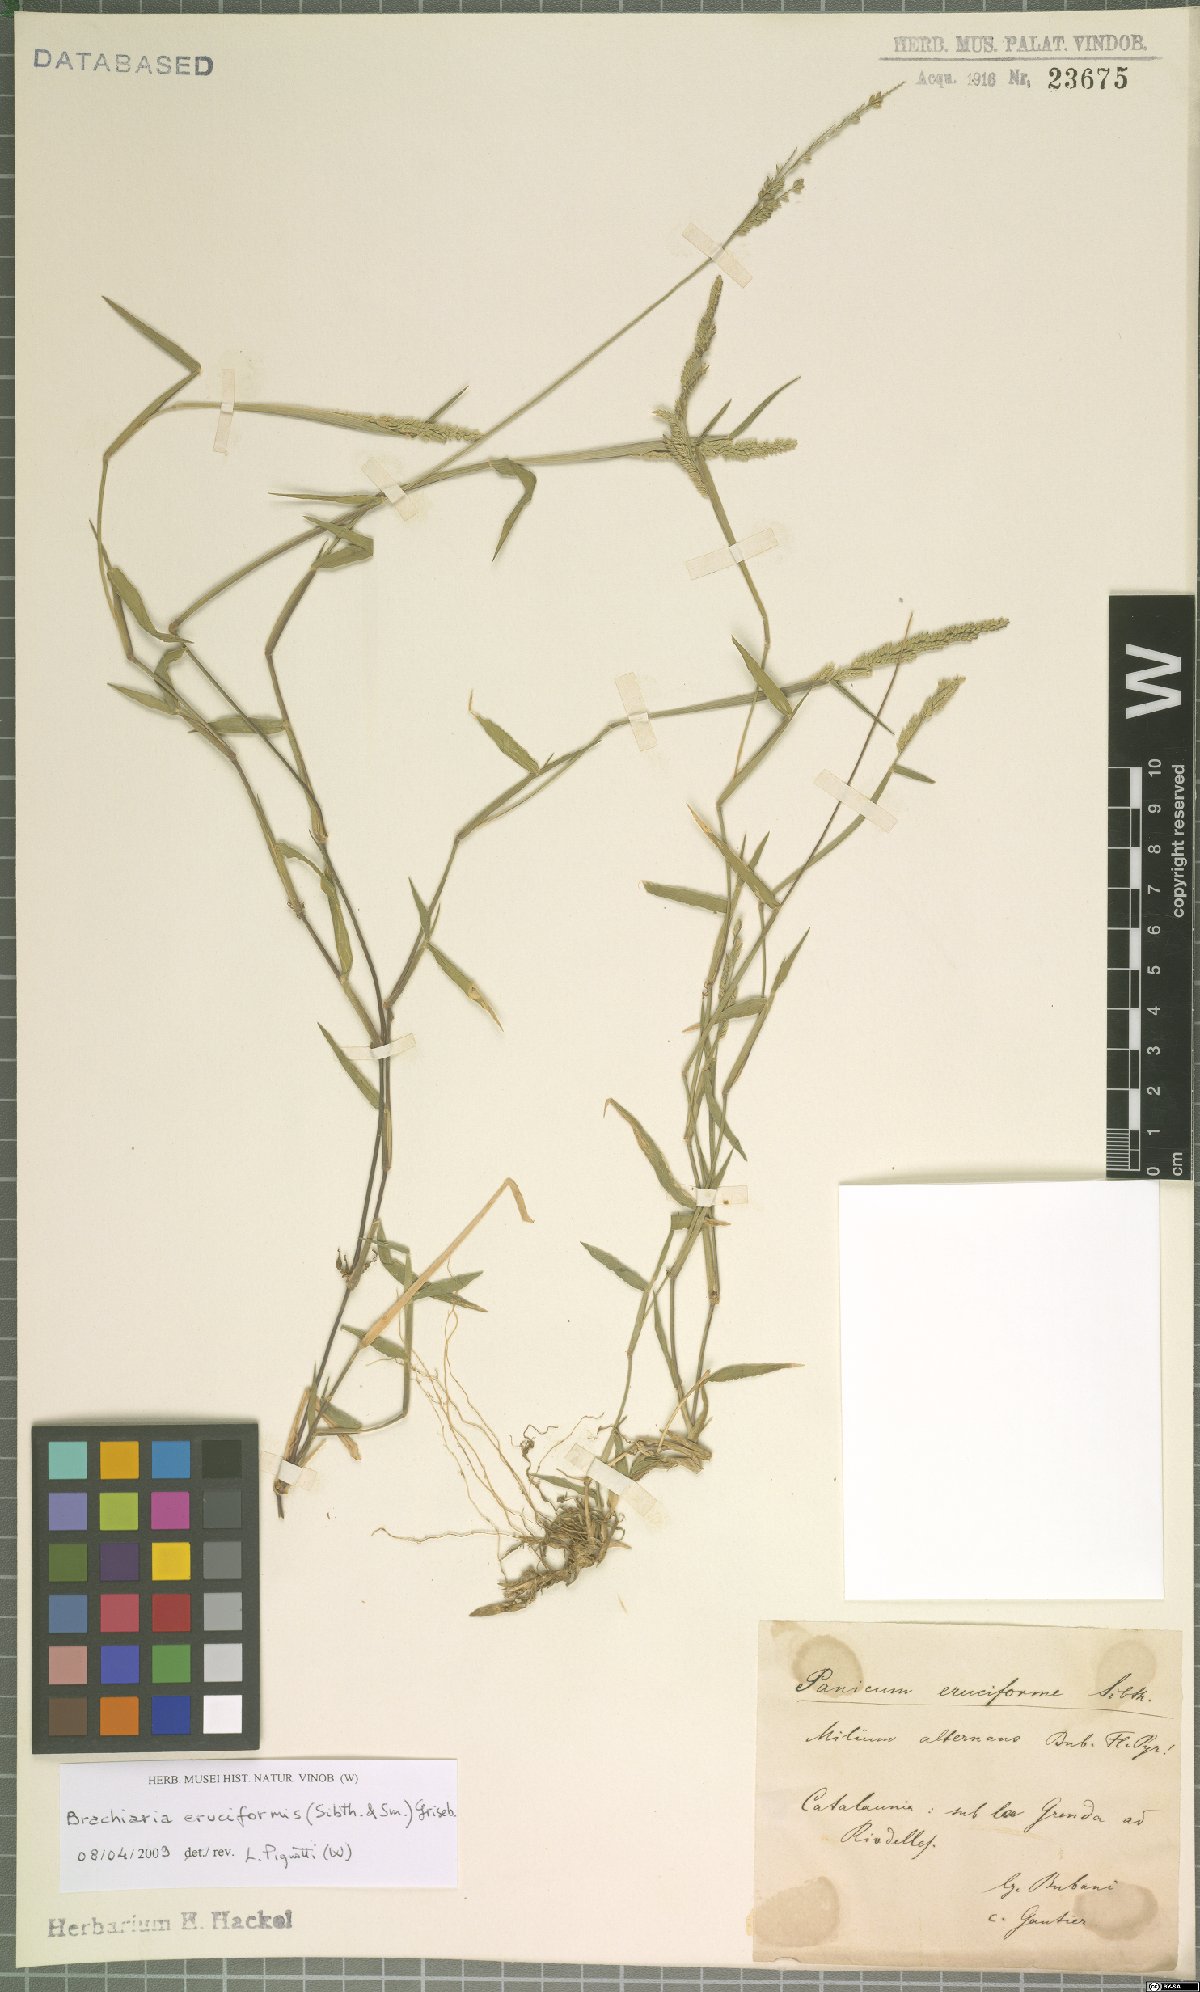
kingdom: Plantae
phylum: Tracheophyta
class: Liliopsida
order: Poales
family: Poaceae
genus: Moorochloa
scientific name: Moorochloa eruciformis
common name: Sweet signalgrass
